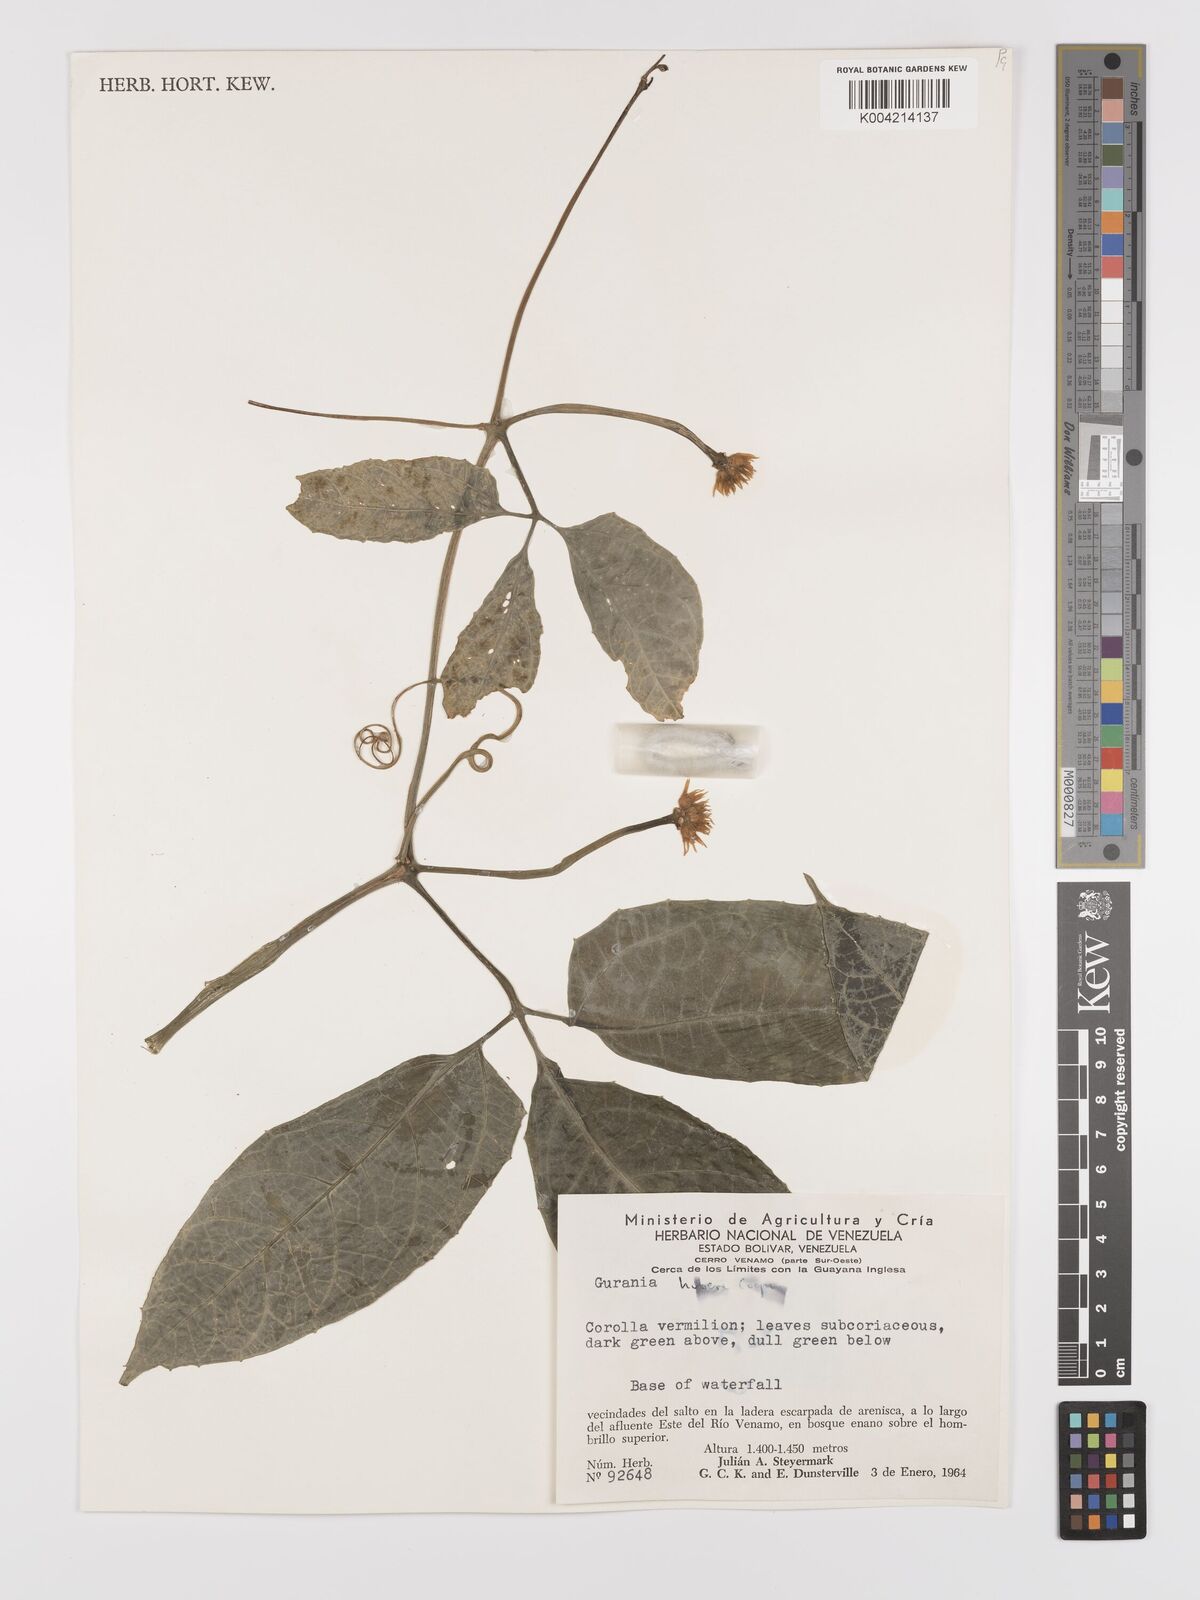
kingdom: Plantae
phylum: Tracheophyta
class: Magnoliopsida
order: Cucurbitales
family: Cucurbitaceae
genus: Gurania
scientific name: Gurania huberi
